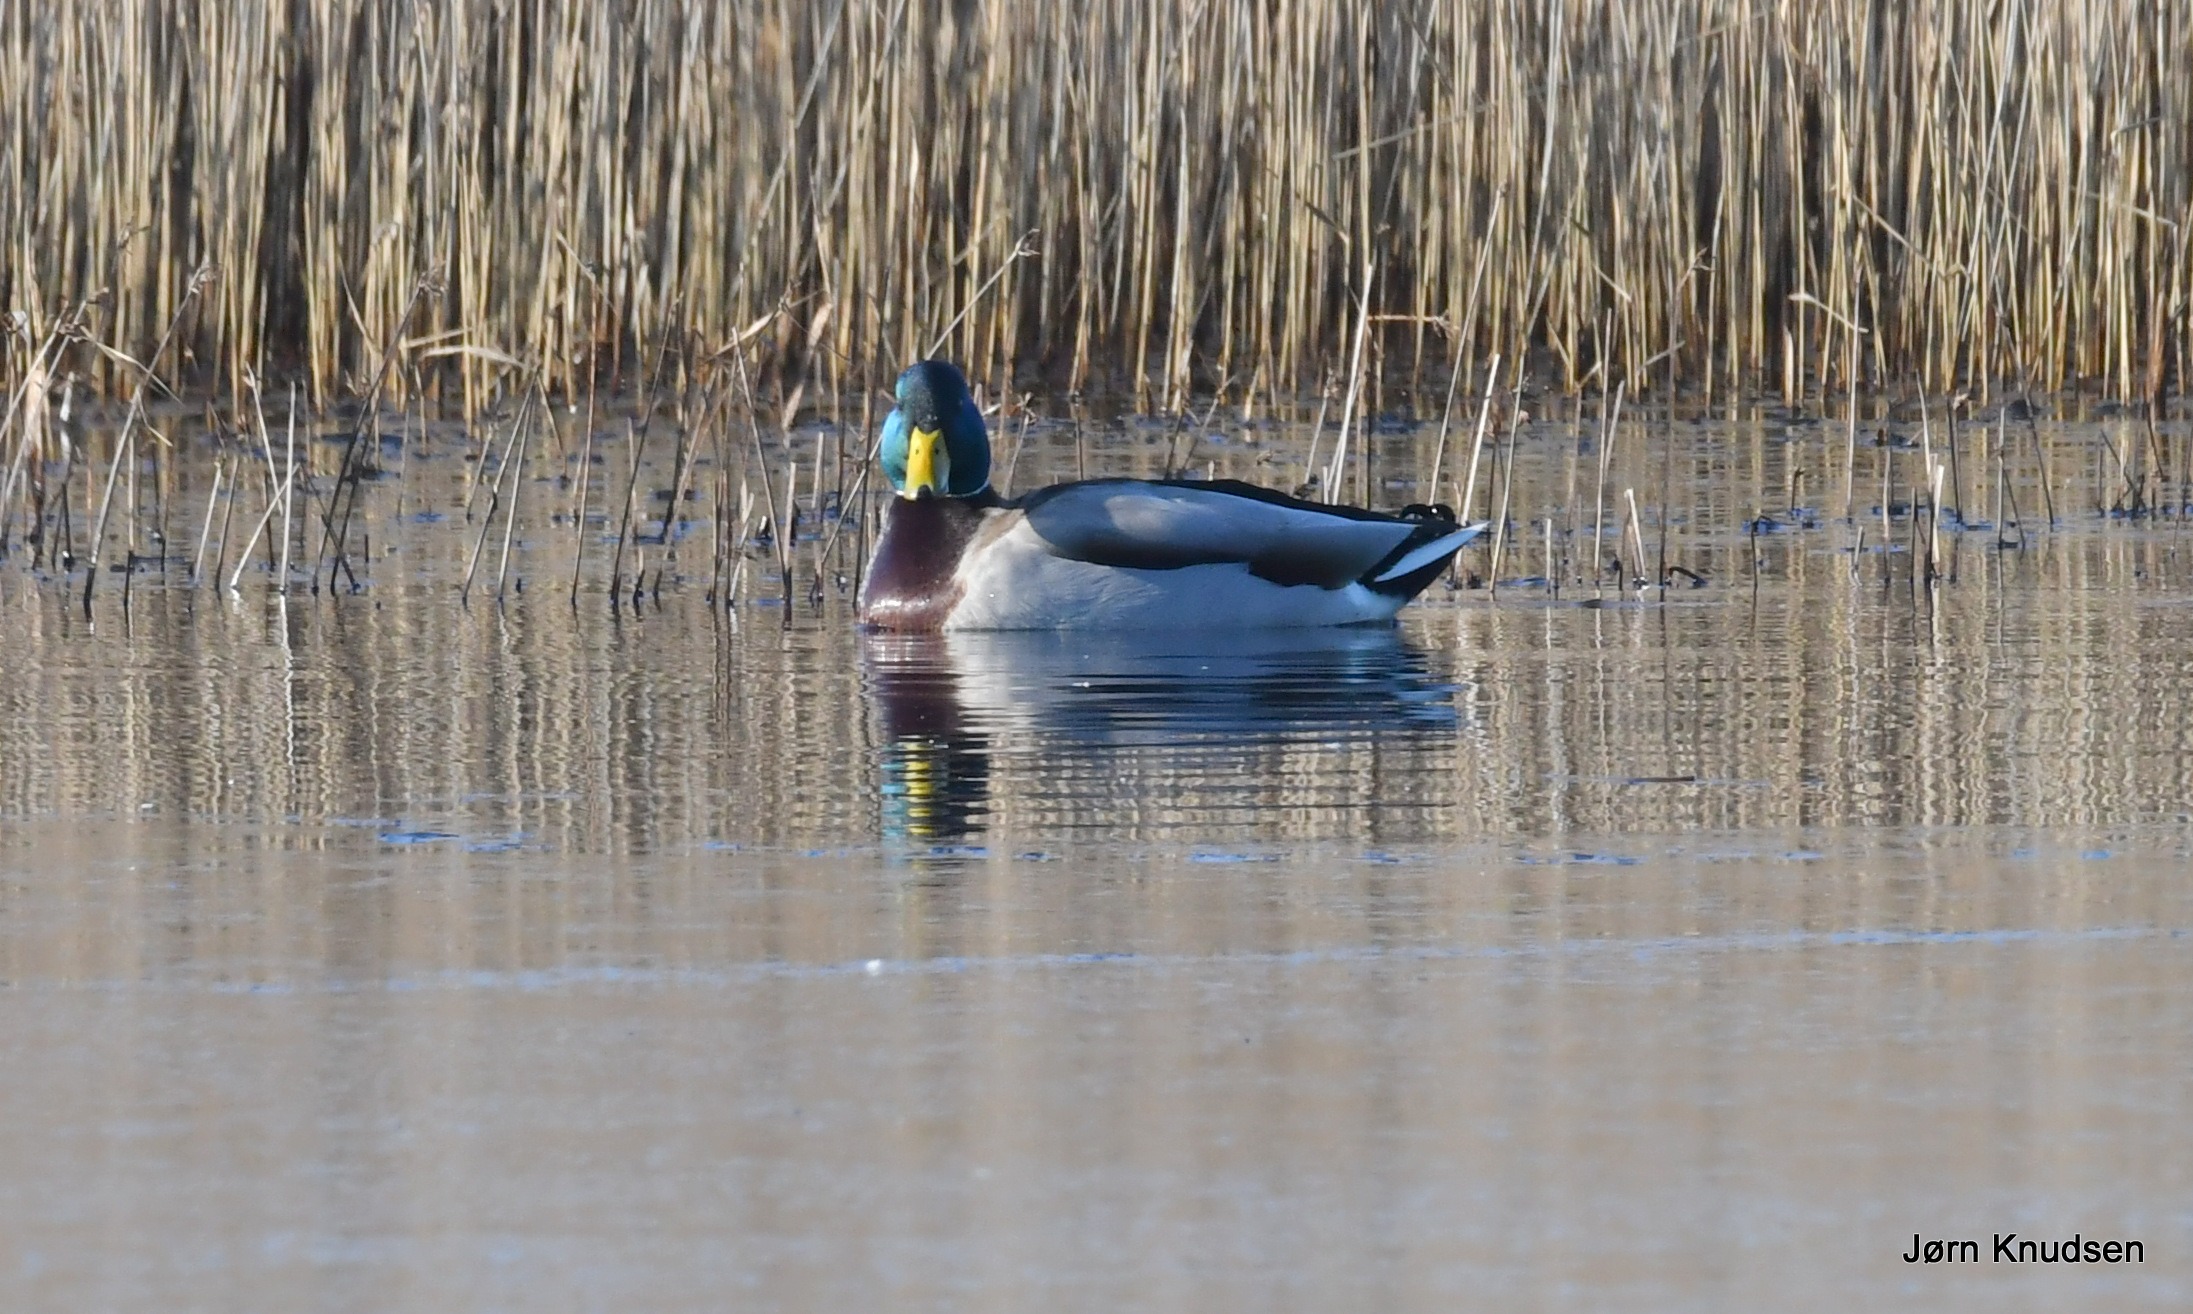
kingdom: Animalia
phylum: Chordata
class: Aves
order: Anseriformes
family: Anatidae
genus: Anas
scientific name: Anas platyrhynchos
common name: Gråand
